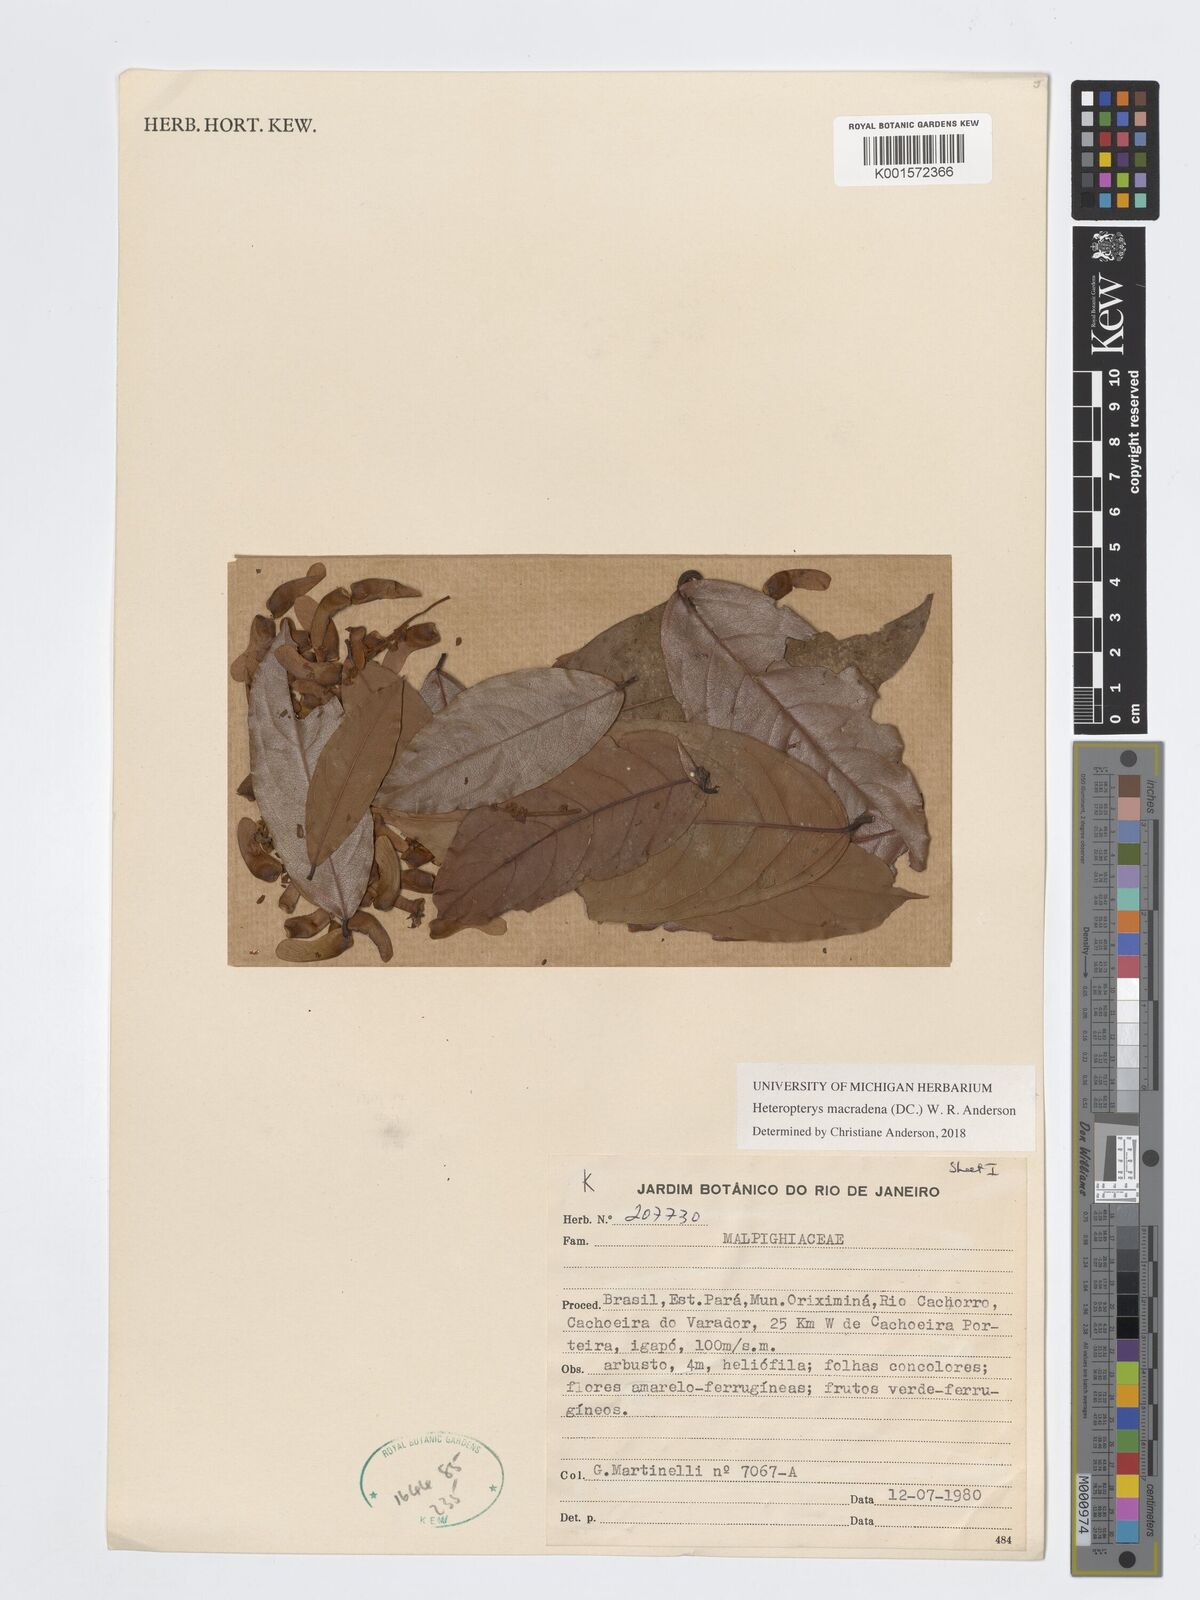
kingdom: Plantae
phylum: Tracheophyta
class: Magnoliopsida
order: Malpighiales
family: Malpighiaceae
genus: Heteropterys
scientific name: Heteropterys macradena
